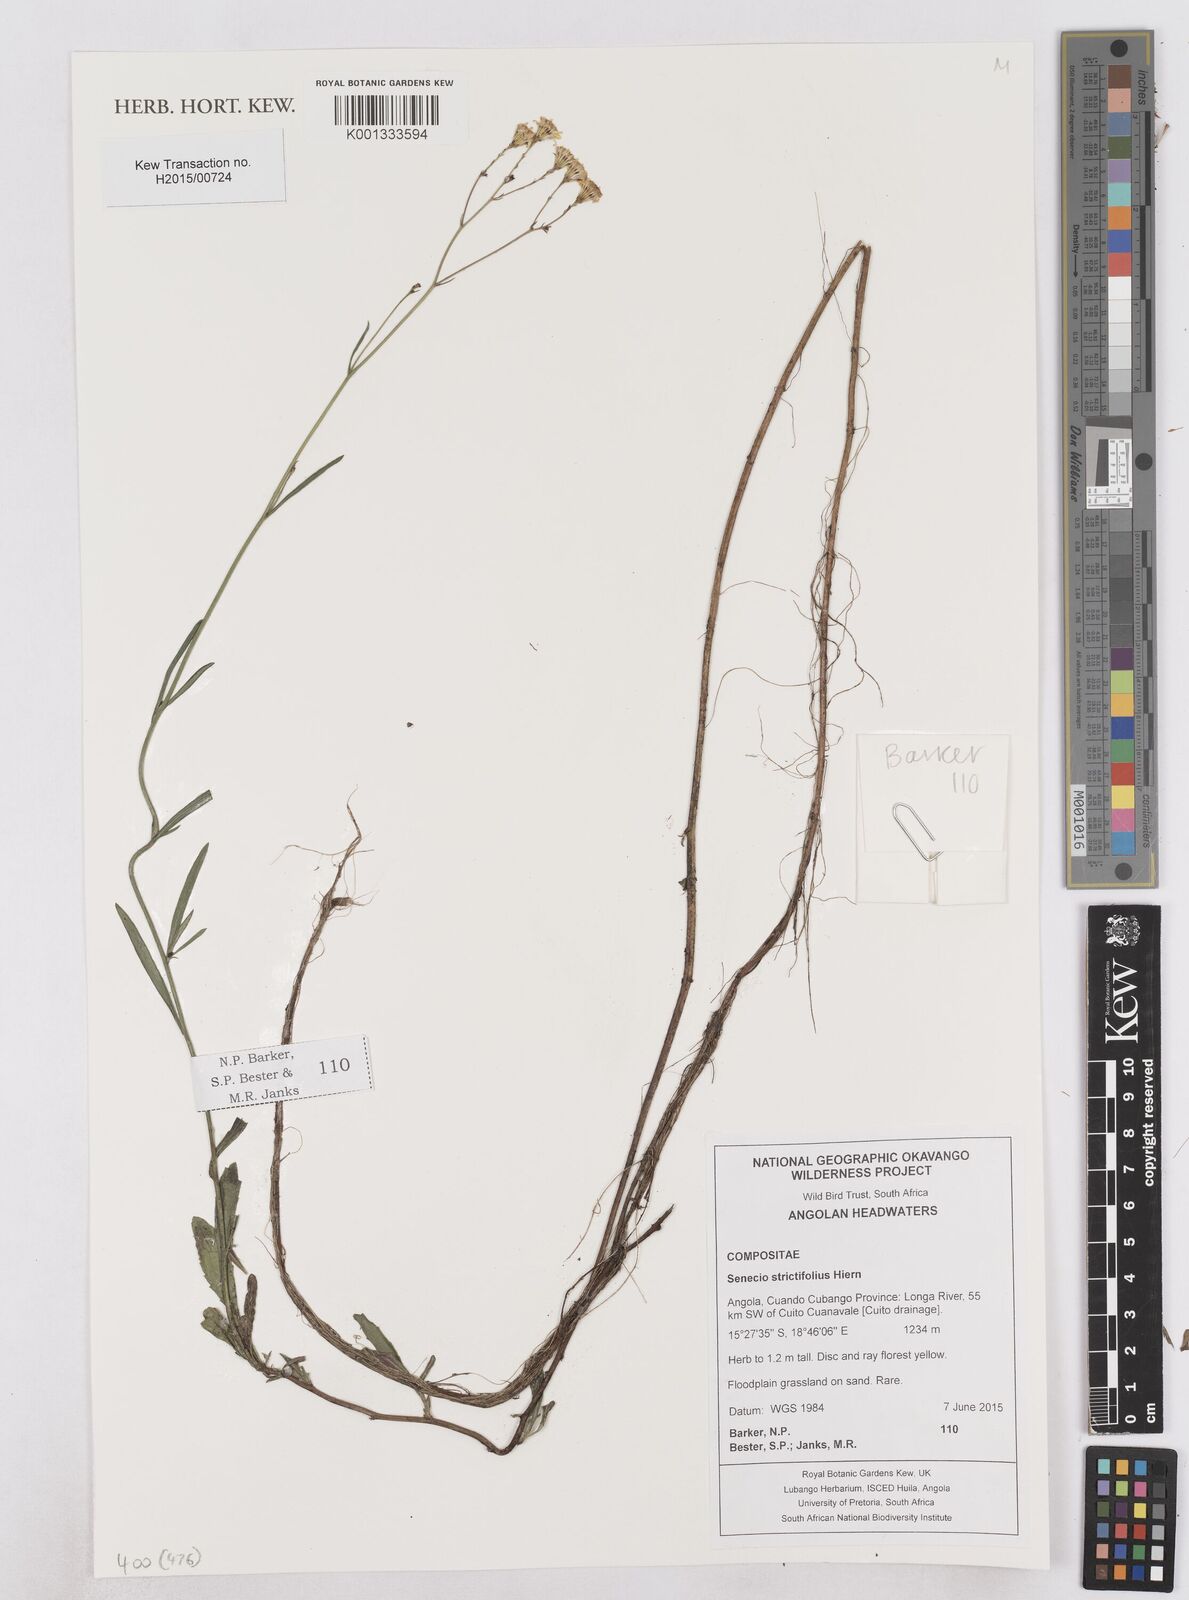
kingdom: Plantae
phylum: Tracheophyta
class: Magnoliopsida
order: Asterales
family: Asteraceae
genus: Senecio
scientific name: Senecio strictifolius
